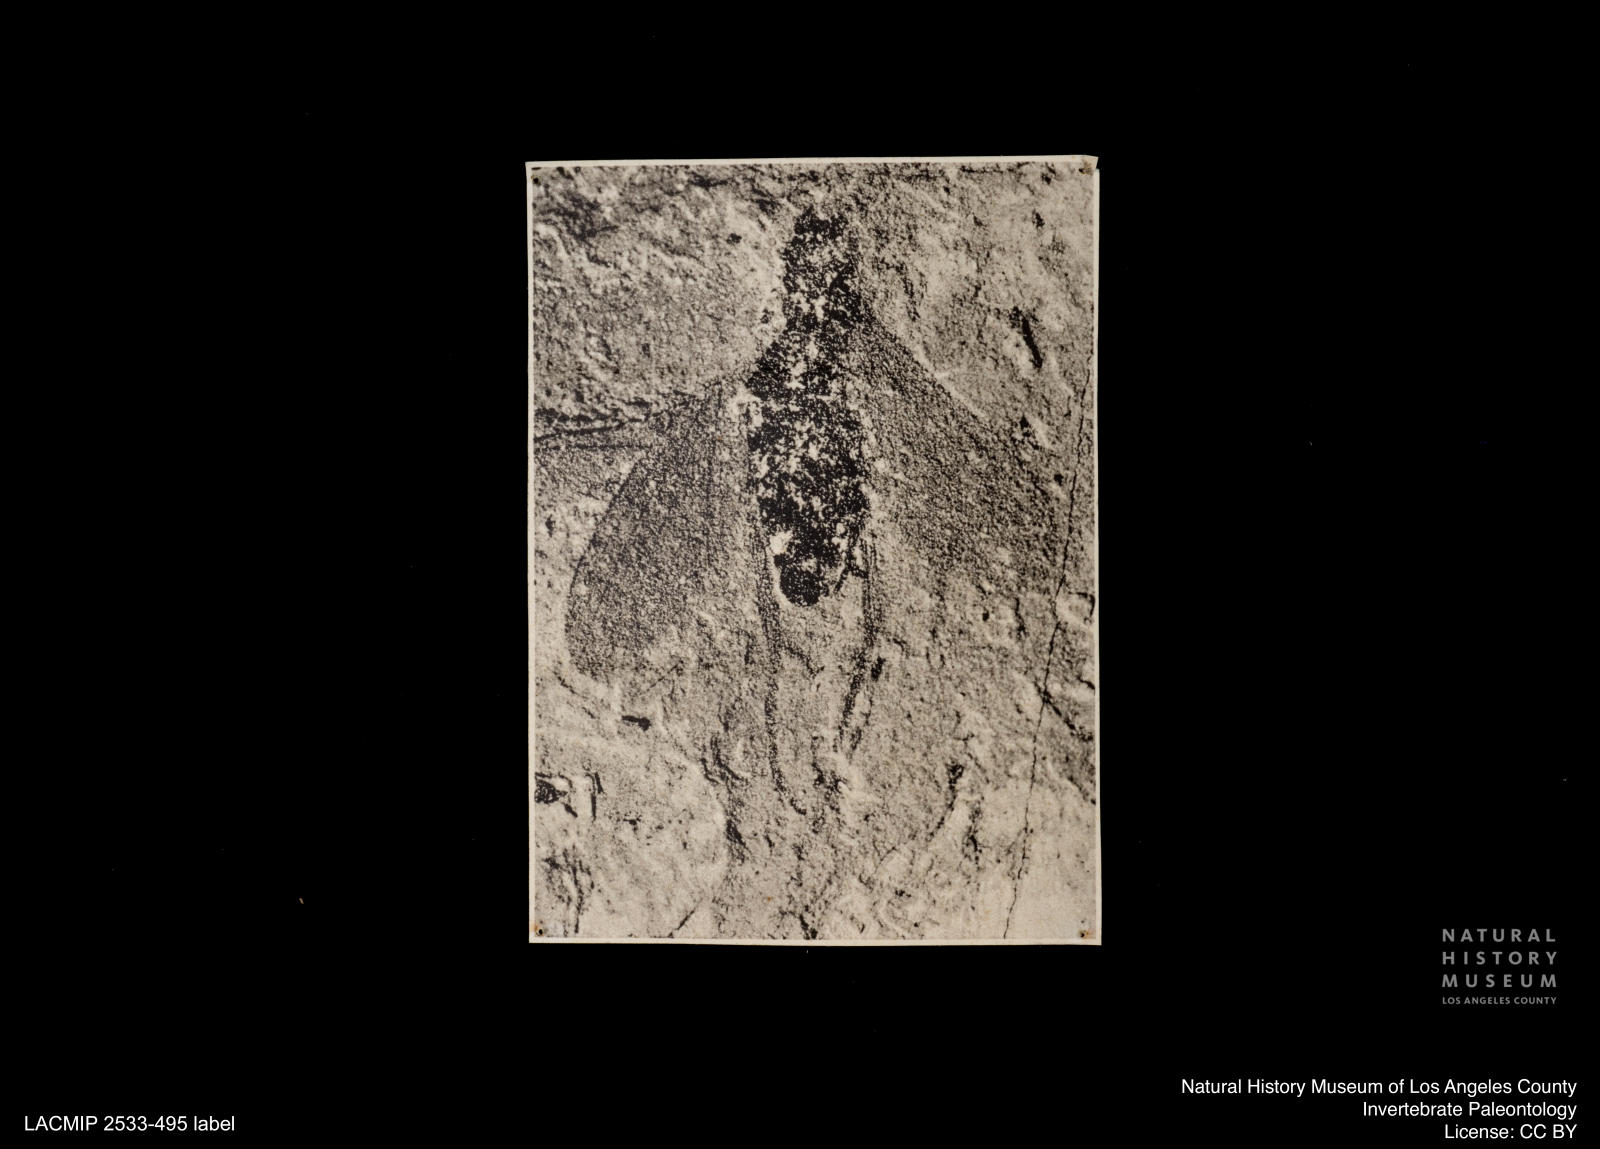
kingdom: Animalia
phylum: Arthropoda
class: Insecta
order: Diptera
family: Dolichopodidae
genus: Xanthochlorus
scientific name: Xanthochlorus
